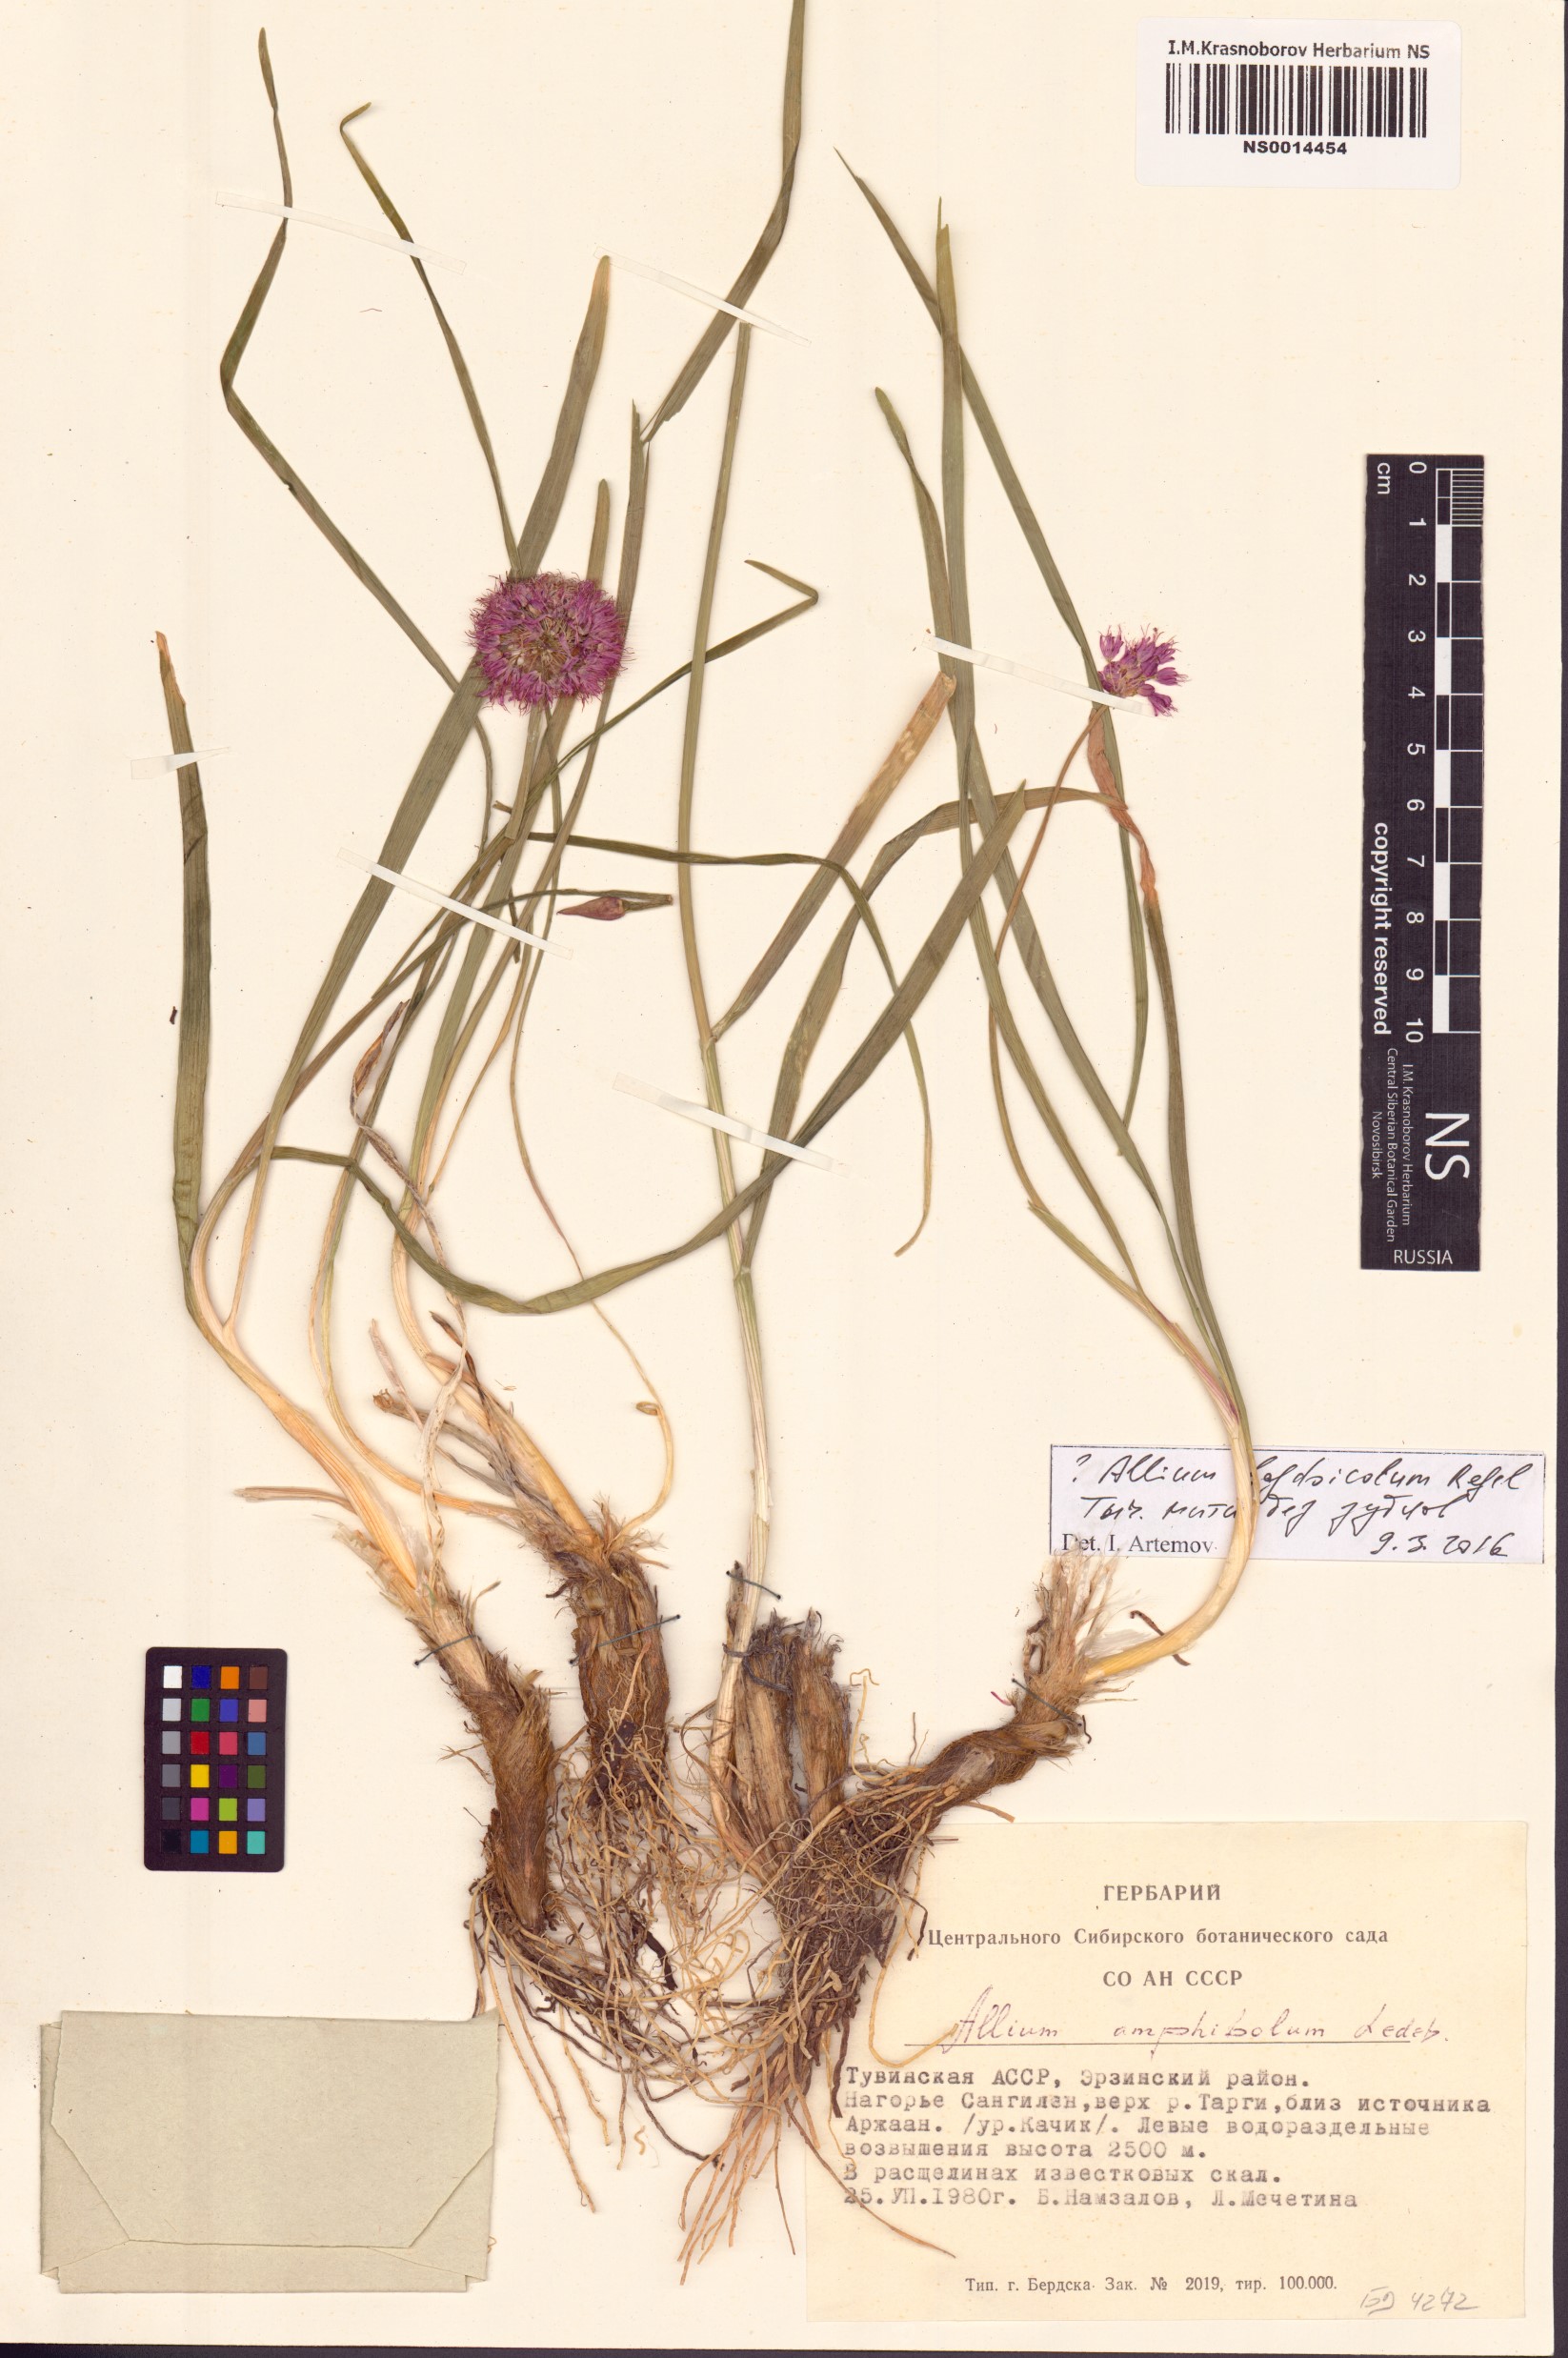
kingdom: Plantae
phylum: Tracheophyta
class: Liliopsida
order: Asparagales
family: Amaryllidaceae
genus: Allium
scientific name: Allium schrenkii
